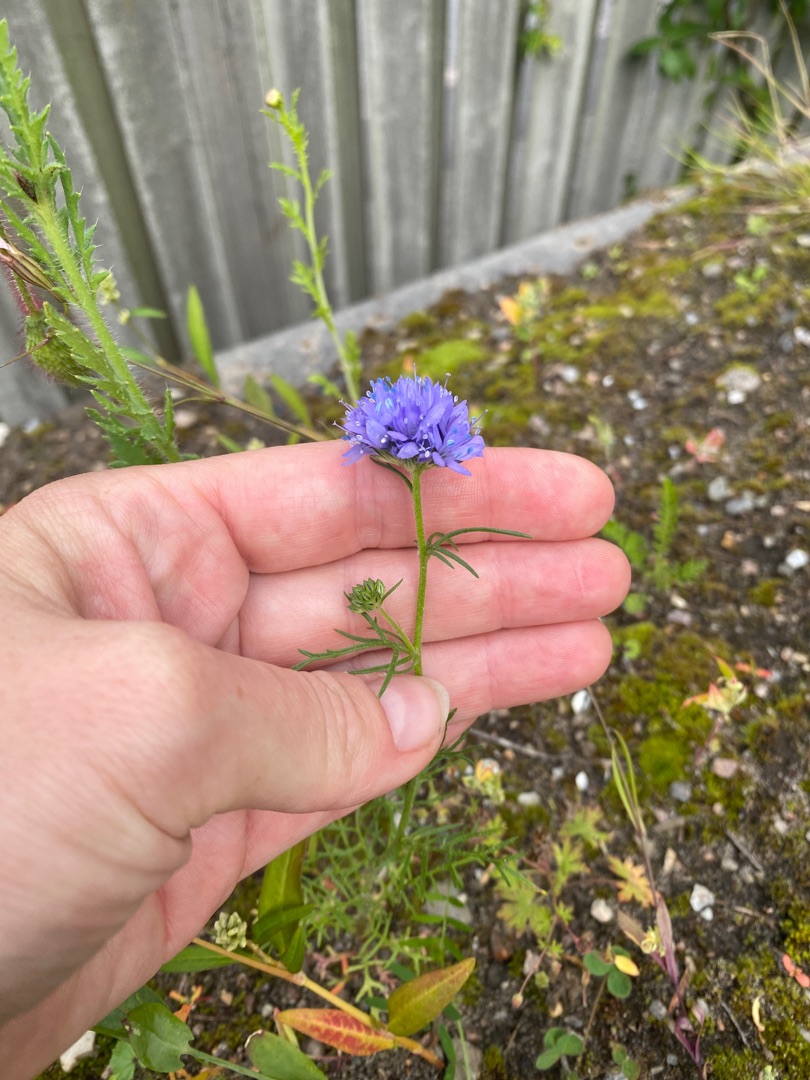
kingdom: Plantae
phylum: Tracheophyta
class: Magnoliopsida
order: Ericales
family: Polemoniaceae
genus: Gilia
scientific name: Gilia achilleifolia
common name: Fjer-blåhoved
